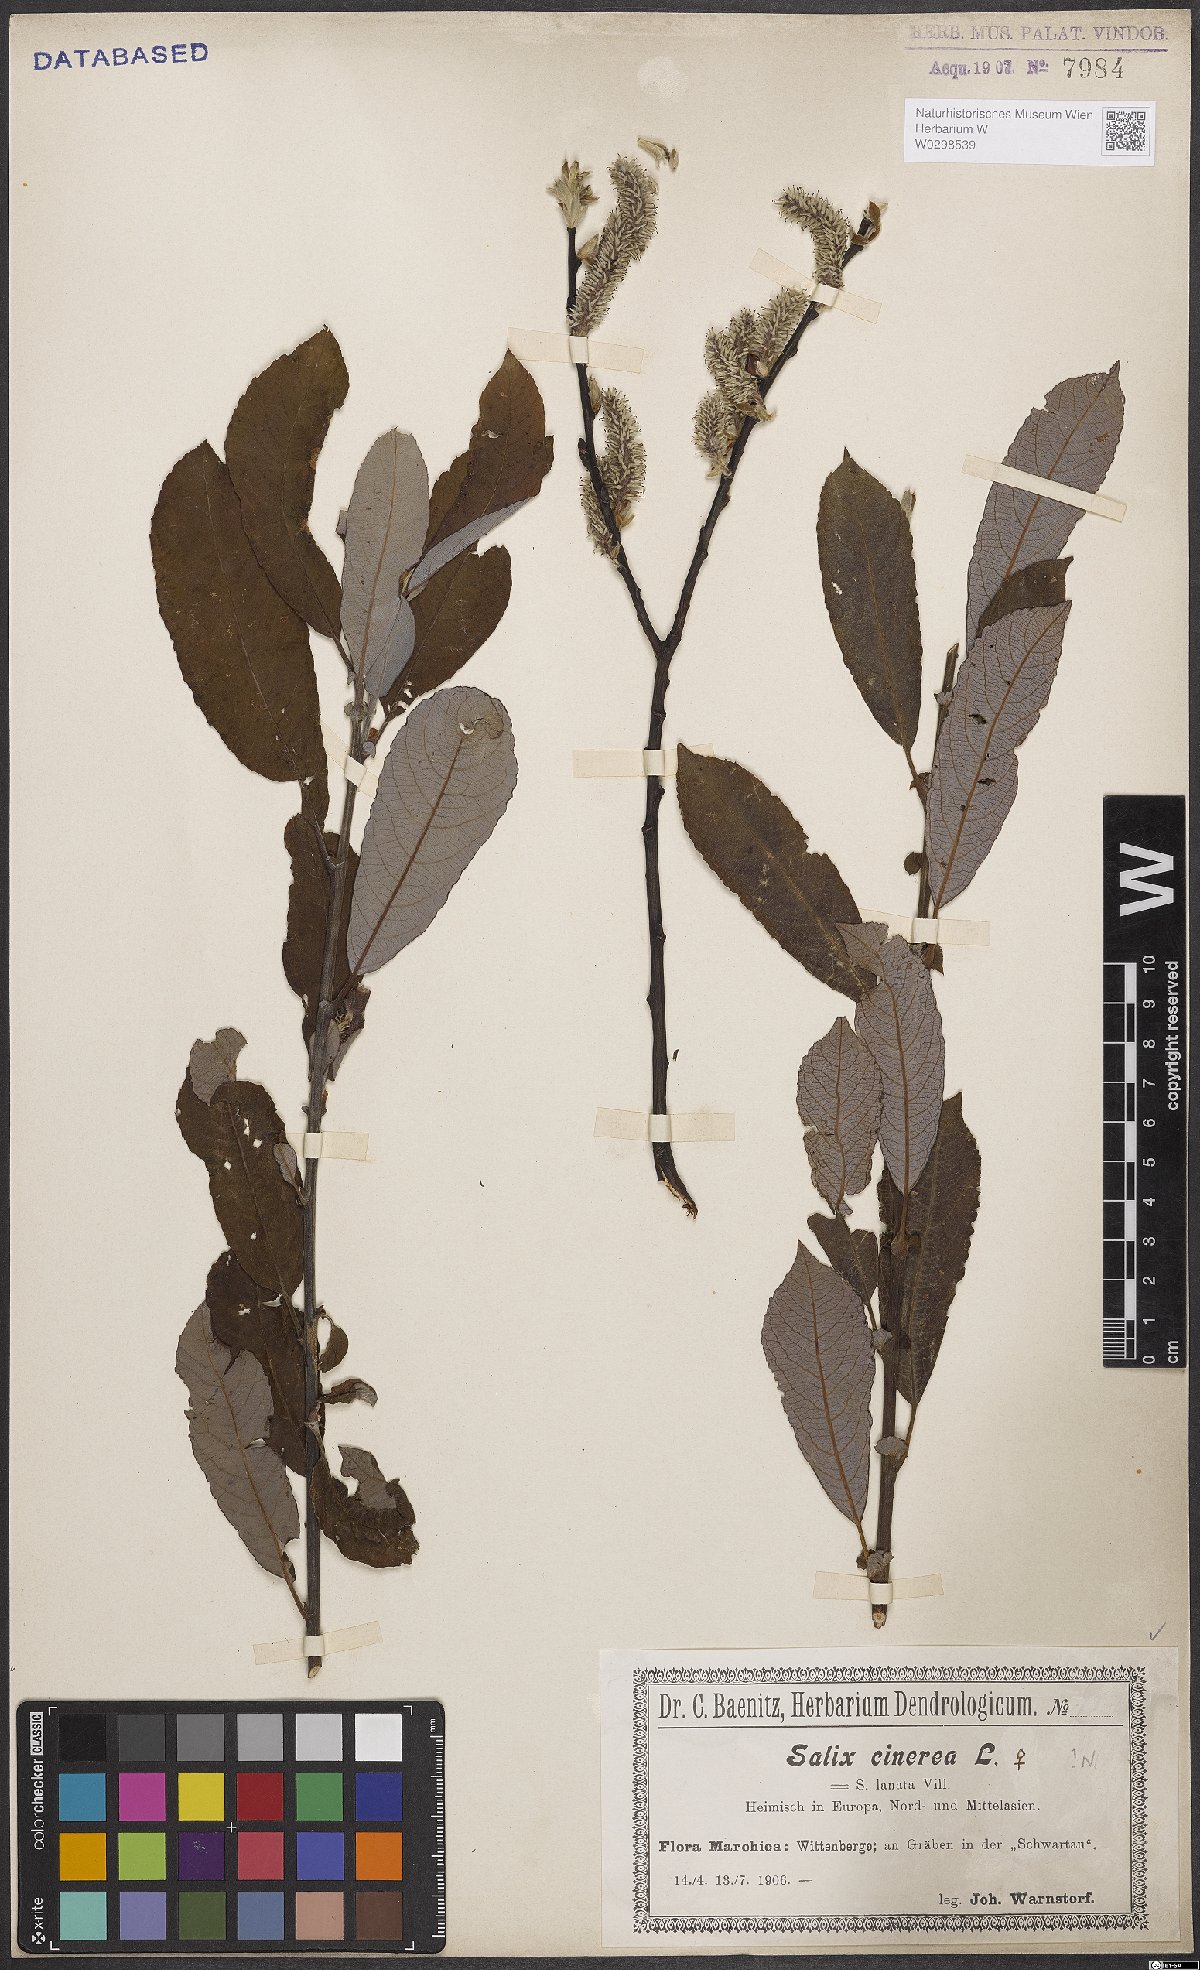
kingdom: Plantae
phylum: Tracheophyta
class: Magnoliopsida
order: Malpighiales
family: Salicaceae
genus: Salix
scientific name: Salix cinerea
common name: Common sallow
